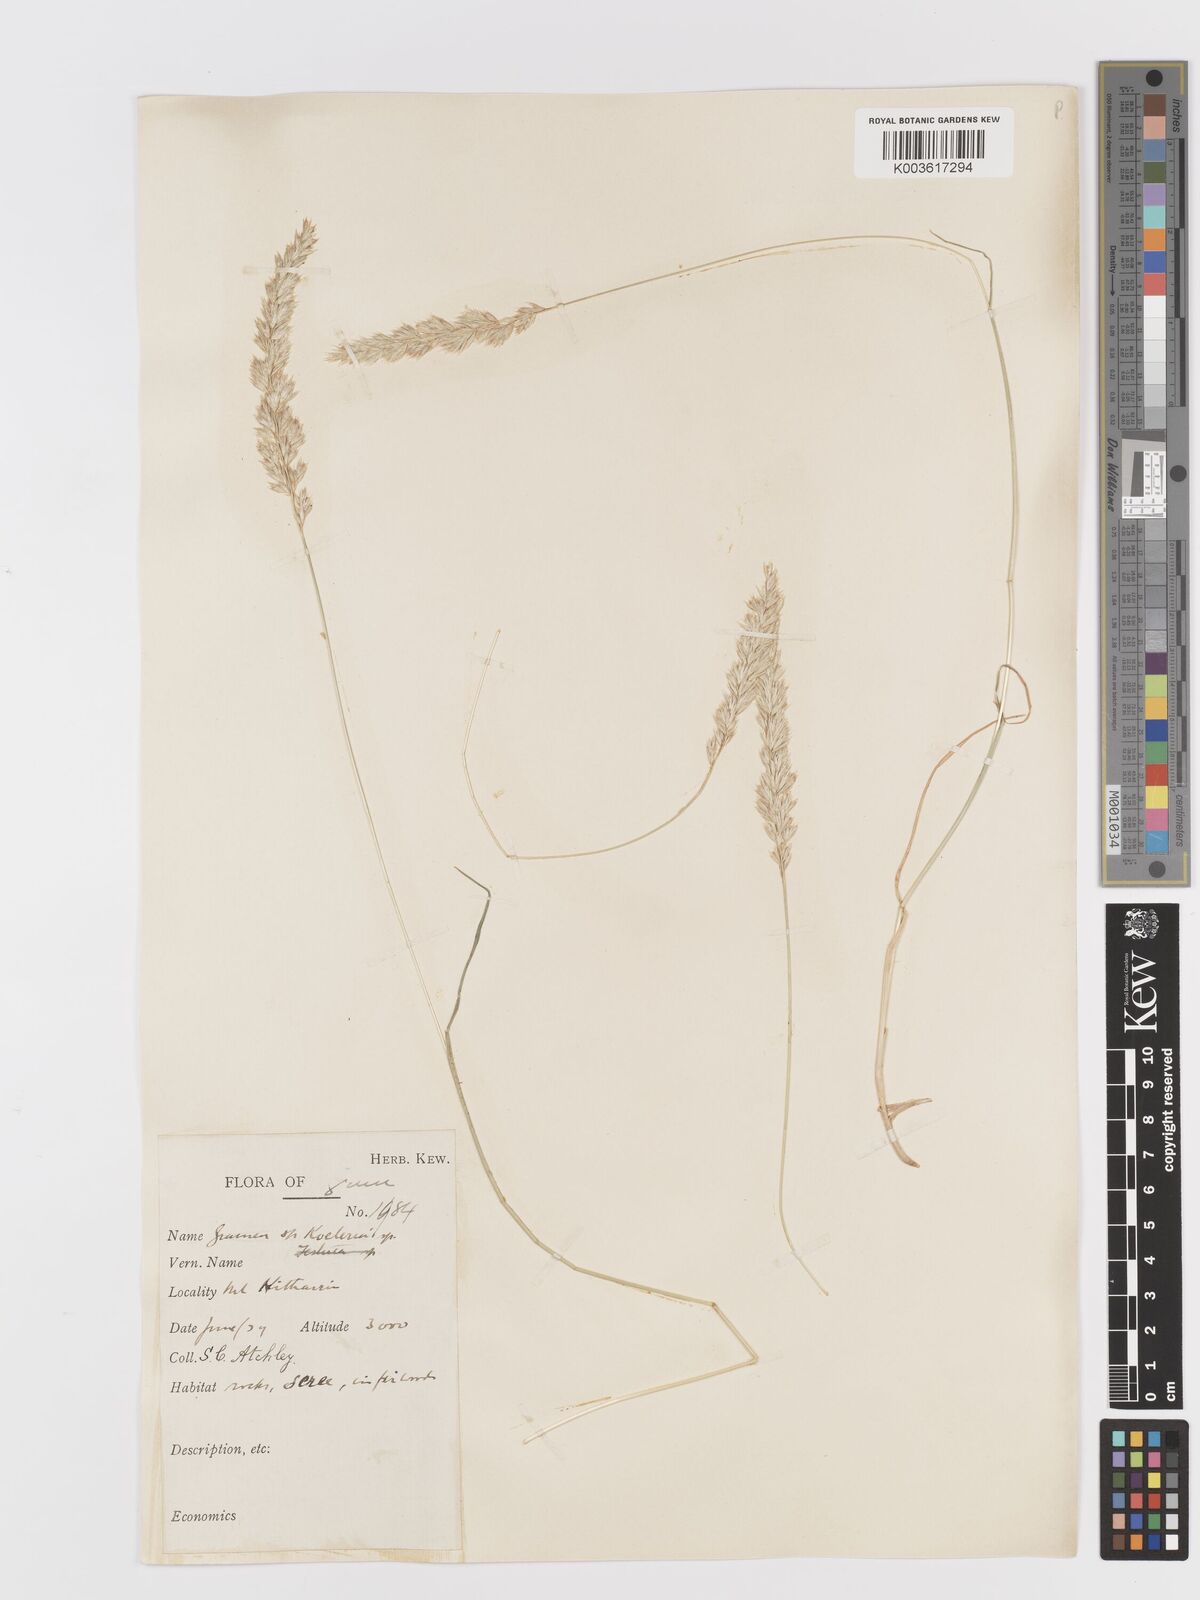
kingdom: Plantae
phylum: Tracheophyta
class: Liliopsida
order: Poales
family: Poaceae
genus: Koeleria
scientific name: Koeleria macrantha
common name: Crested hair-grass
